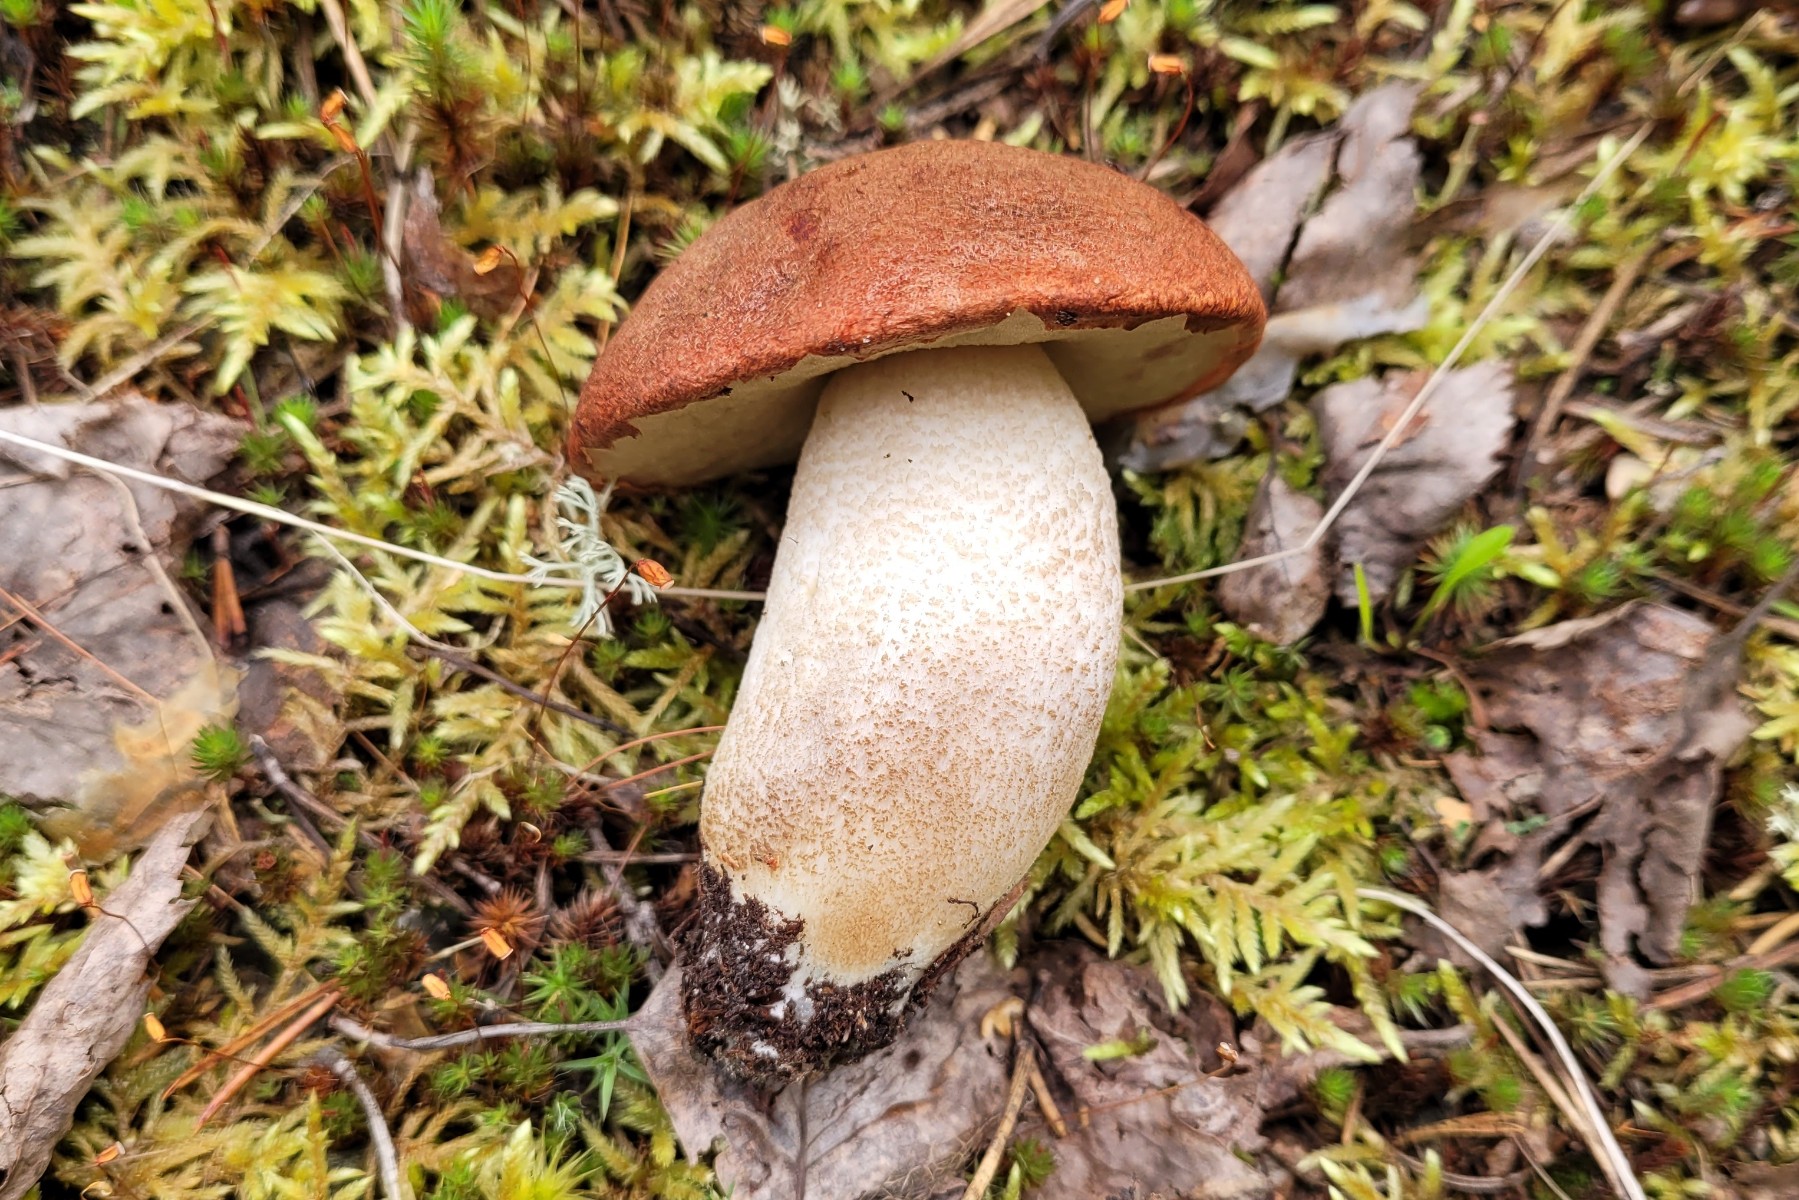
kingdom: Fungi
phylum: Basidiomycota
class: Agaricomycetes
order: Boletales
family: Boletaceae
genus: Leccinum
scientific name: Leccinum albostipitatum
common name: aspe-skælrørhat
